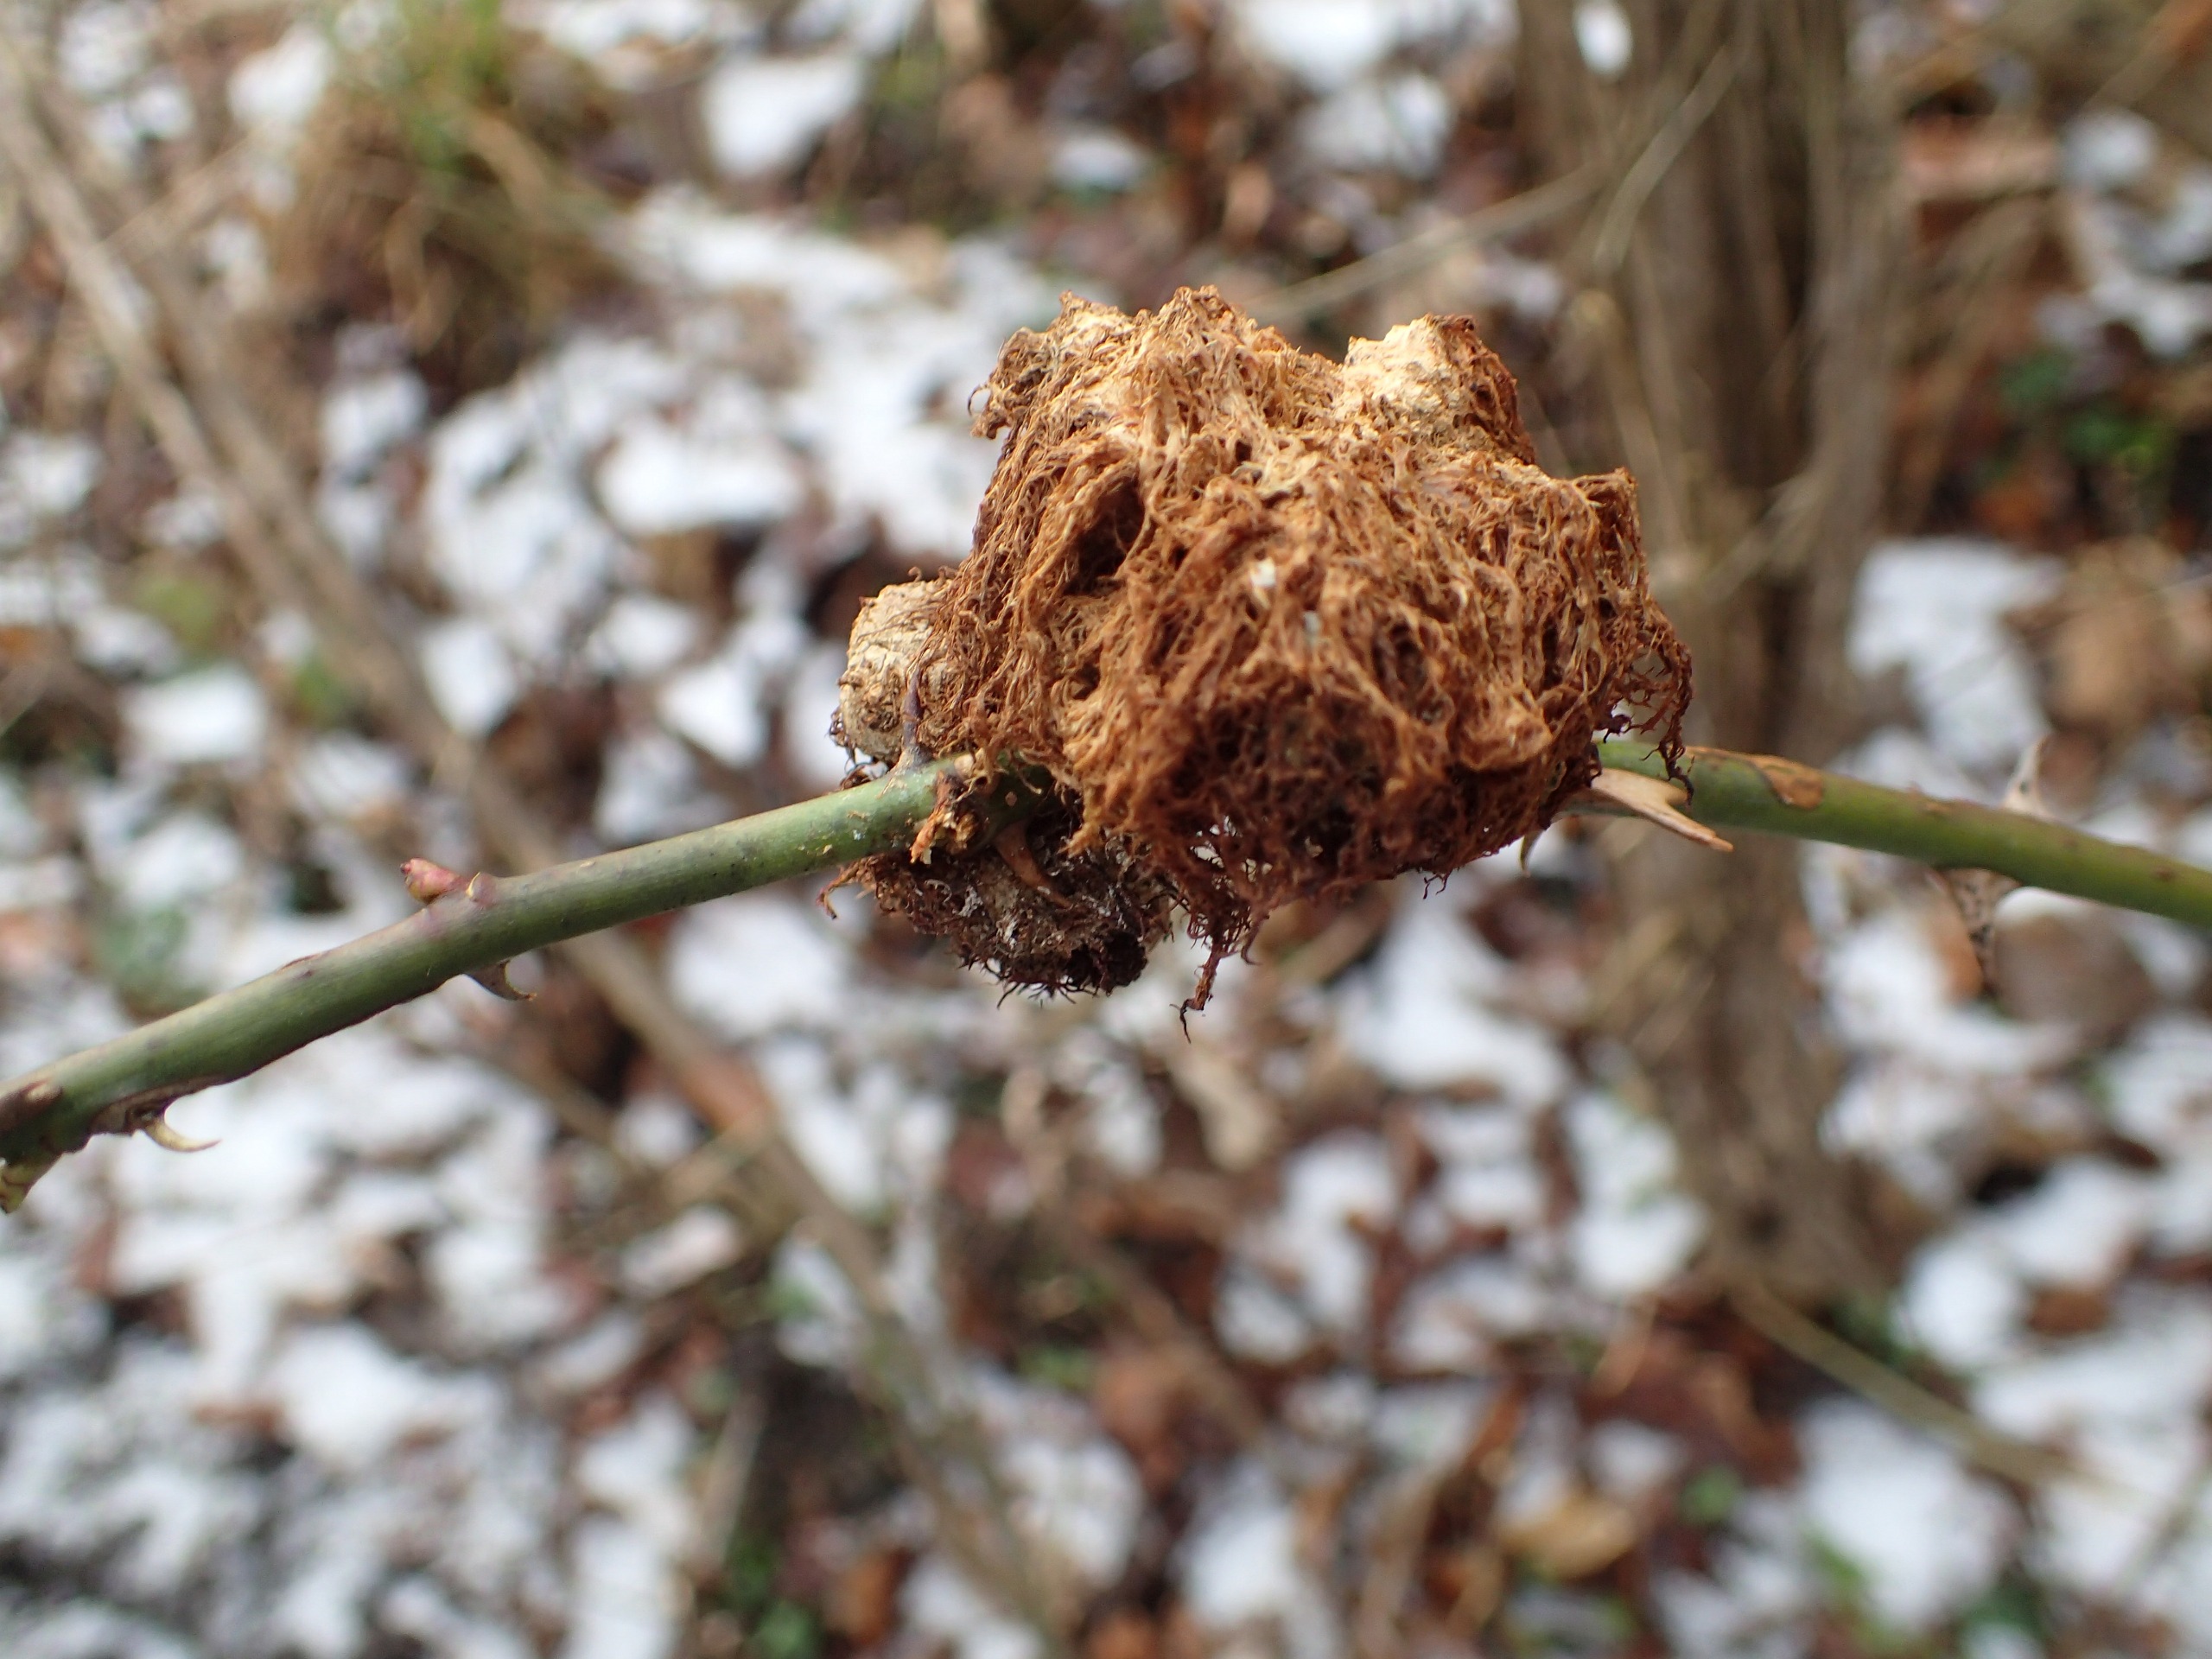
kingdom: Animalia
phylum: Arthropoda
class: Insecta
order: Hymenoptera
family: Cynipidae
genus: Diplolepis
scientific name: Diplolepis rosae
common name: Bedeguargalhveps
